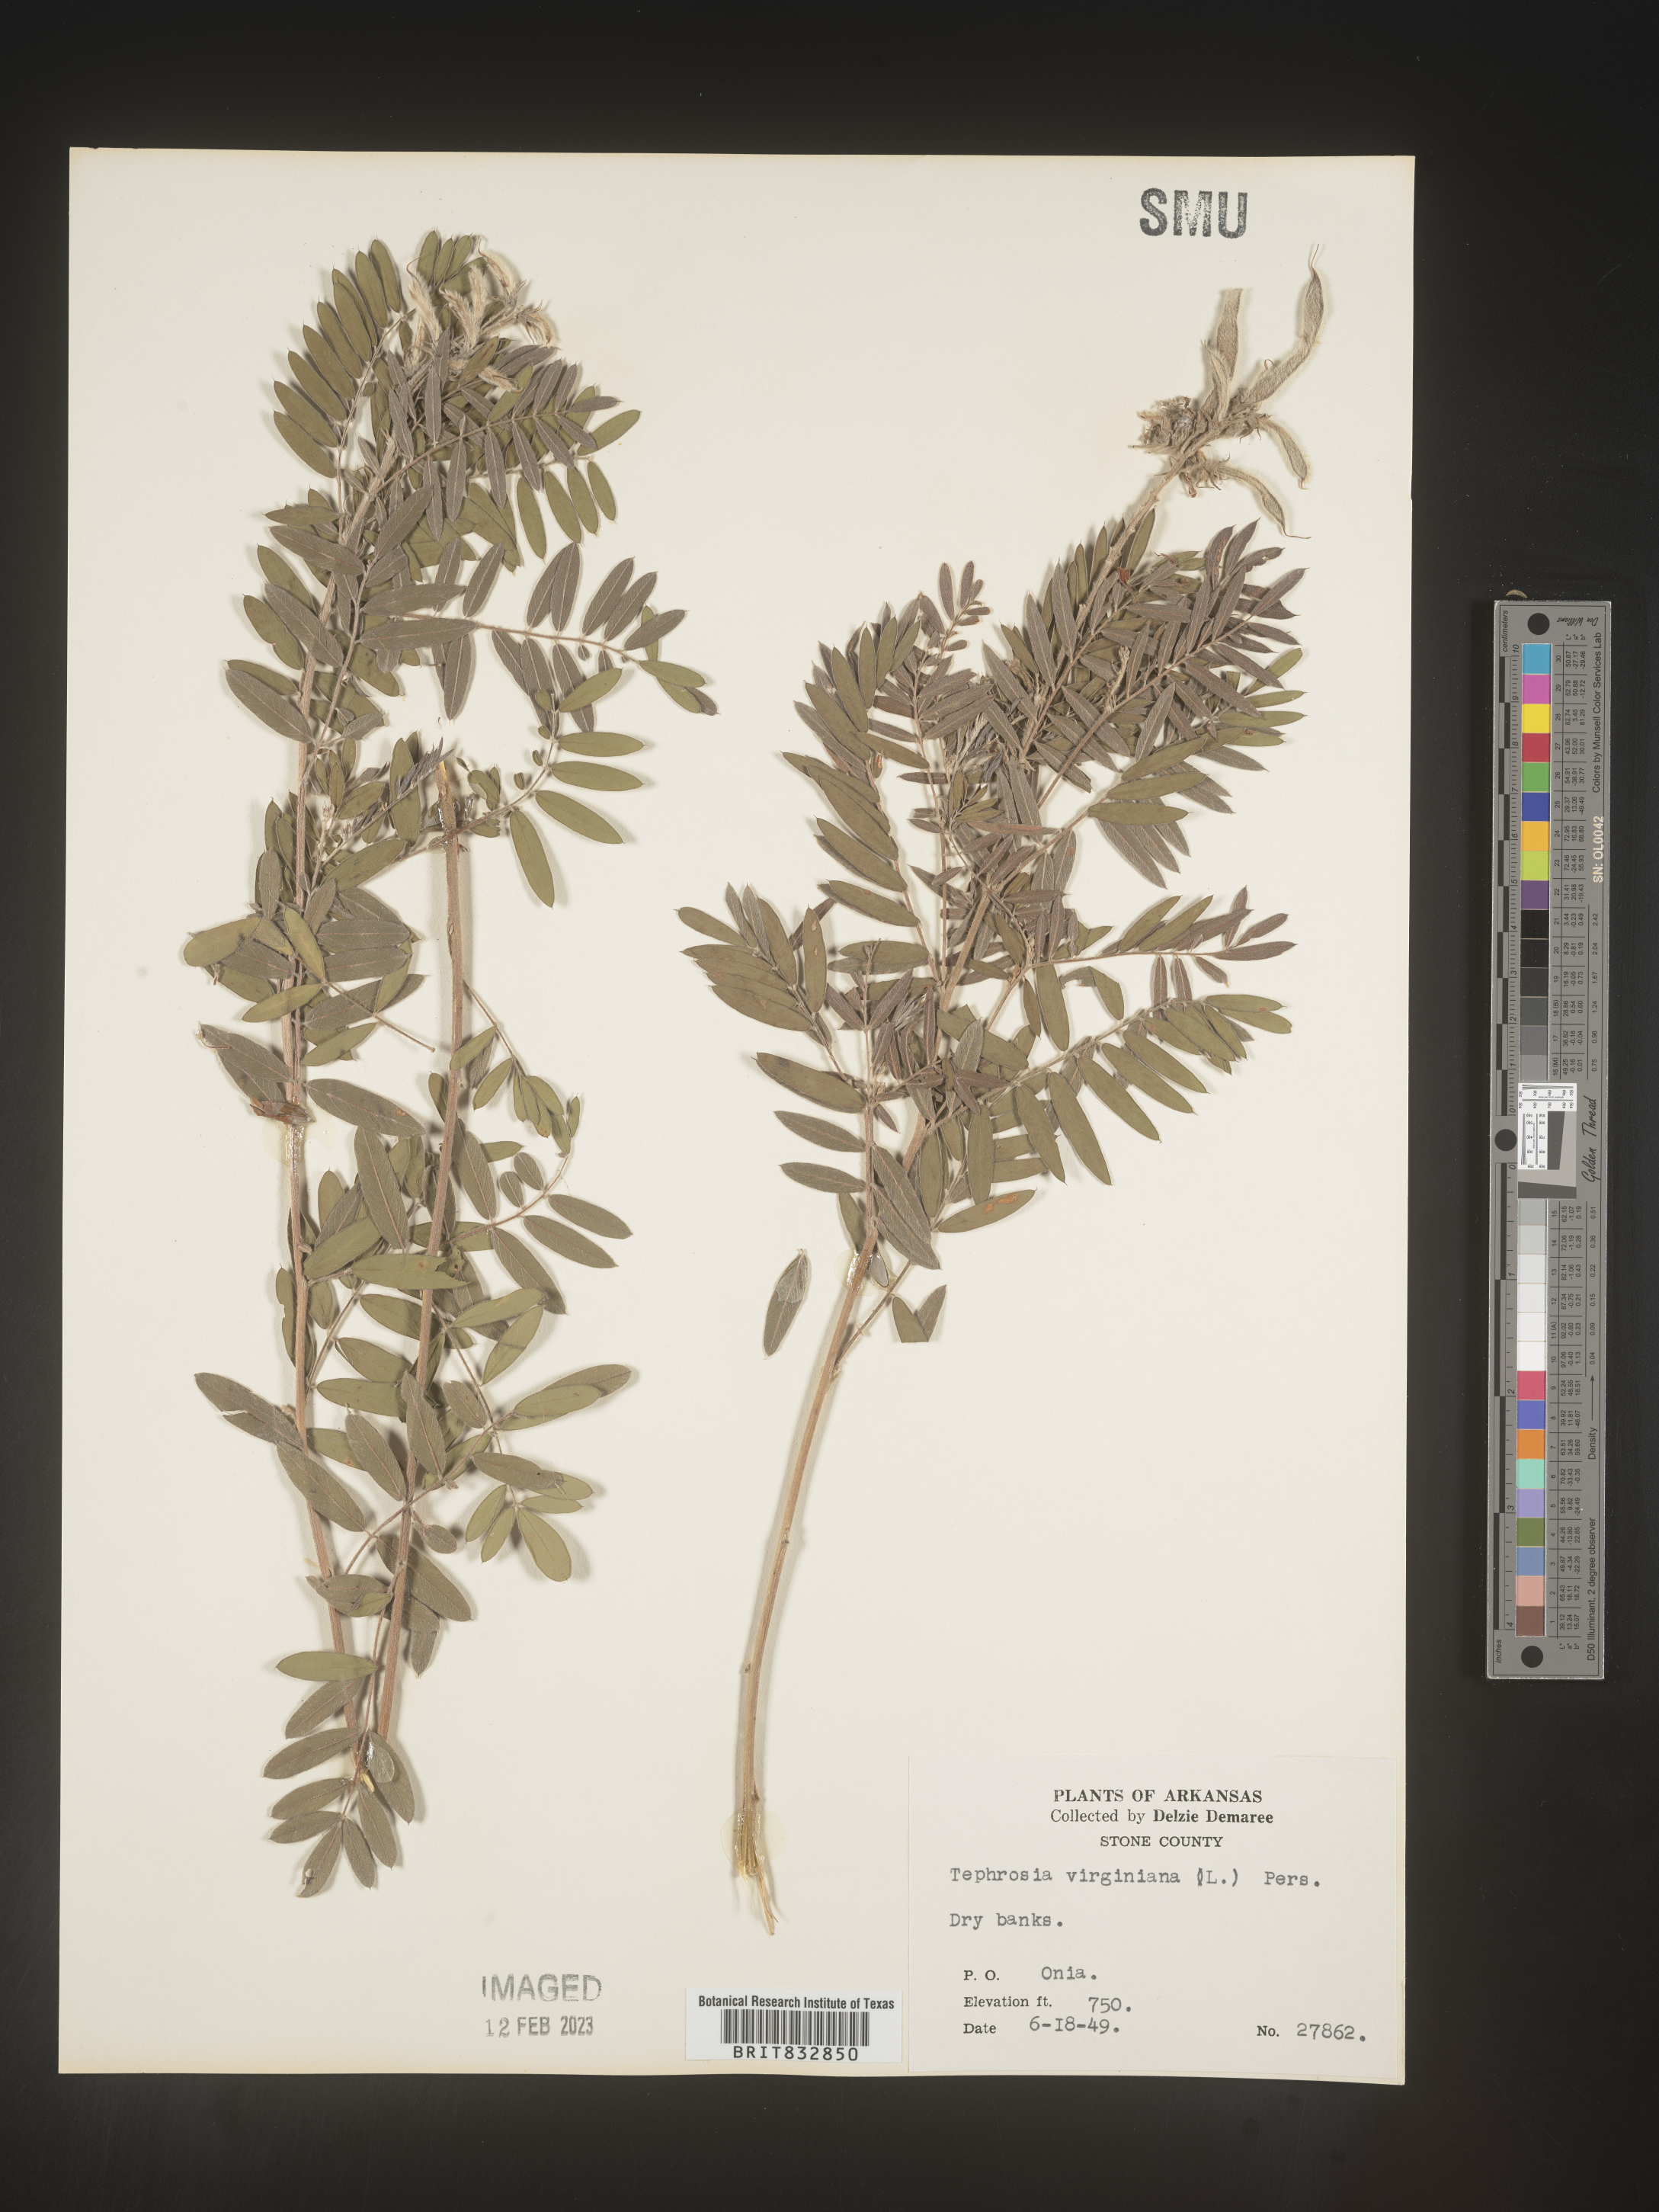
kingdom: Plantae
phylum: Tracheophyta
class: Magnoliopsida
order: Fabales
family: Fabaceae
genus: Tephrosia
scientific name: Tephrosia virginiana
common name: Rabbit-pea
